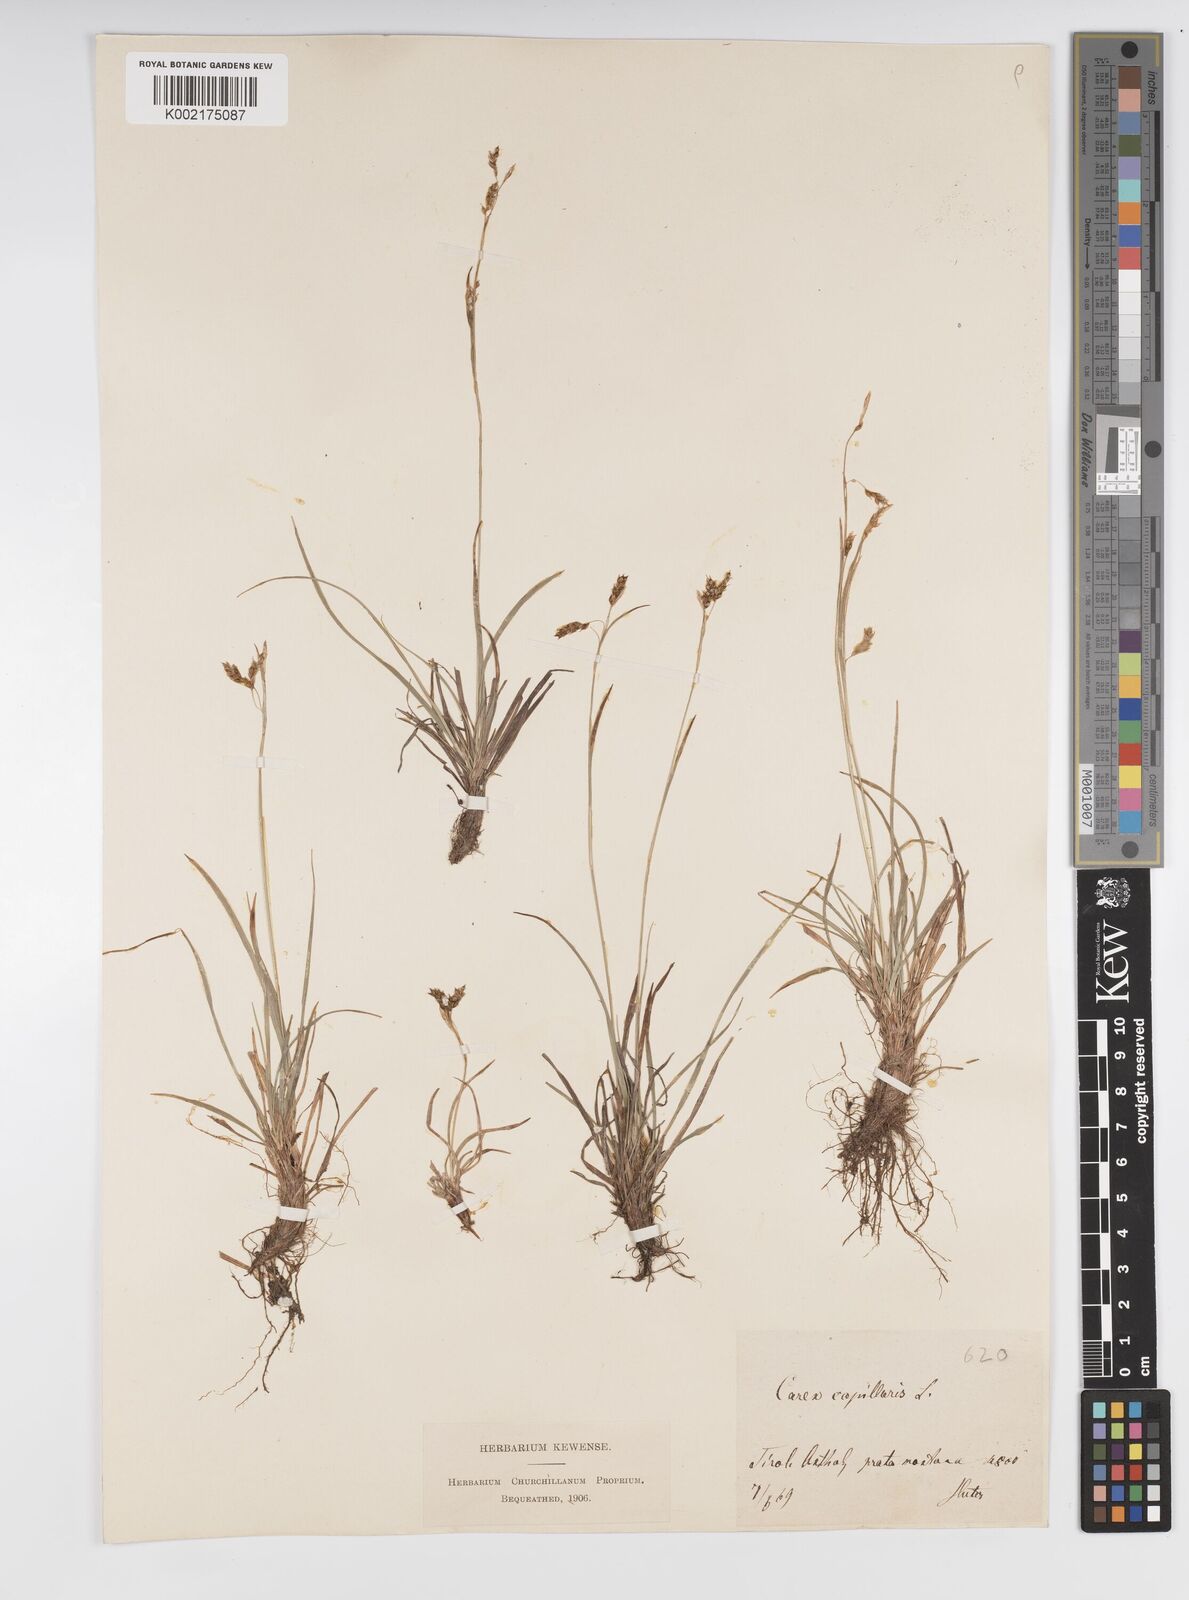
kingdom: Plantae
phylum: Tracheophyta
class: Liliopsida
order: Poales
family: Cyperaceae
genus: Carex
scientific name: Carex capillaris
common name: Hair sedge
